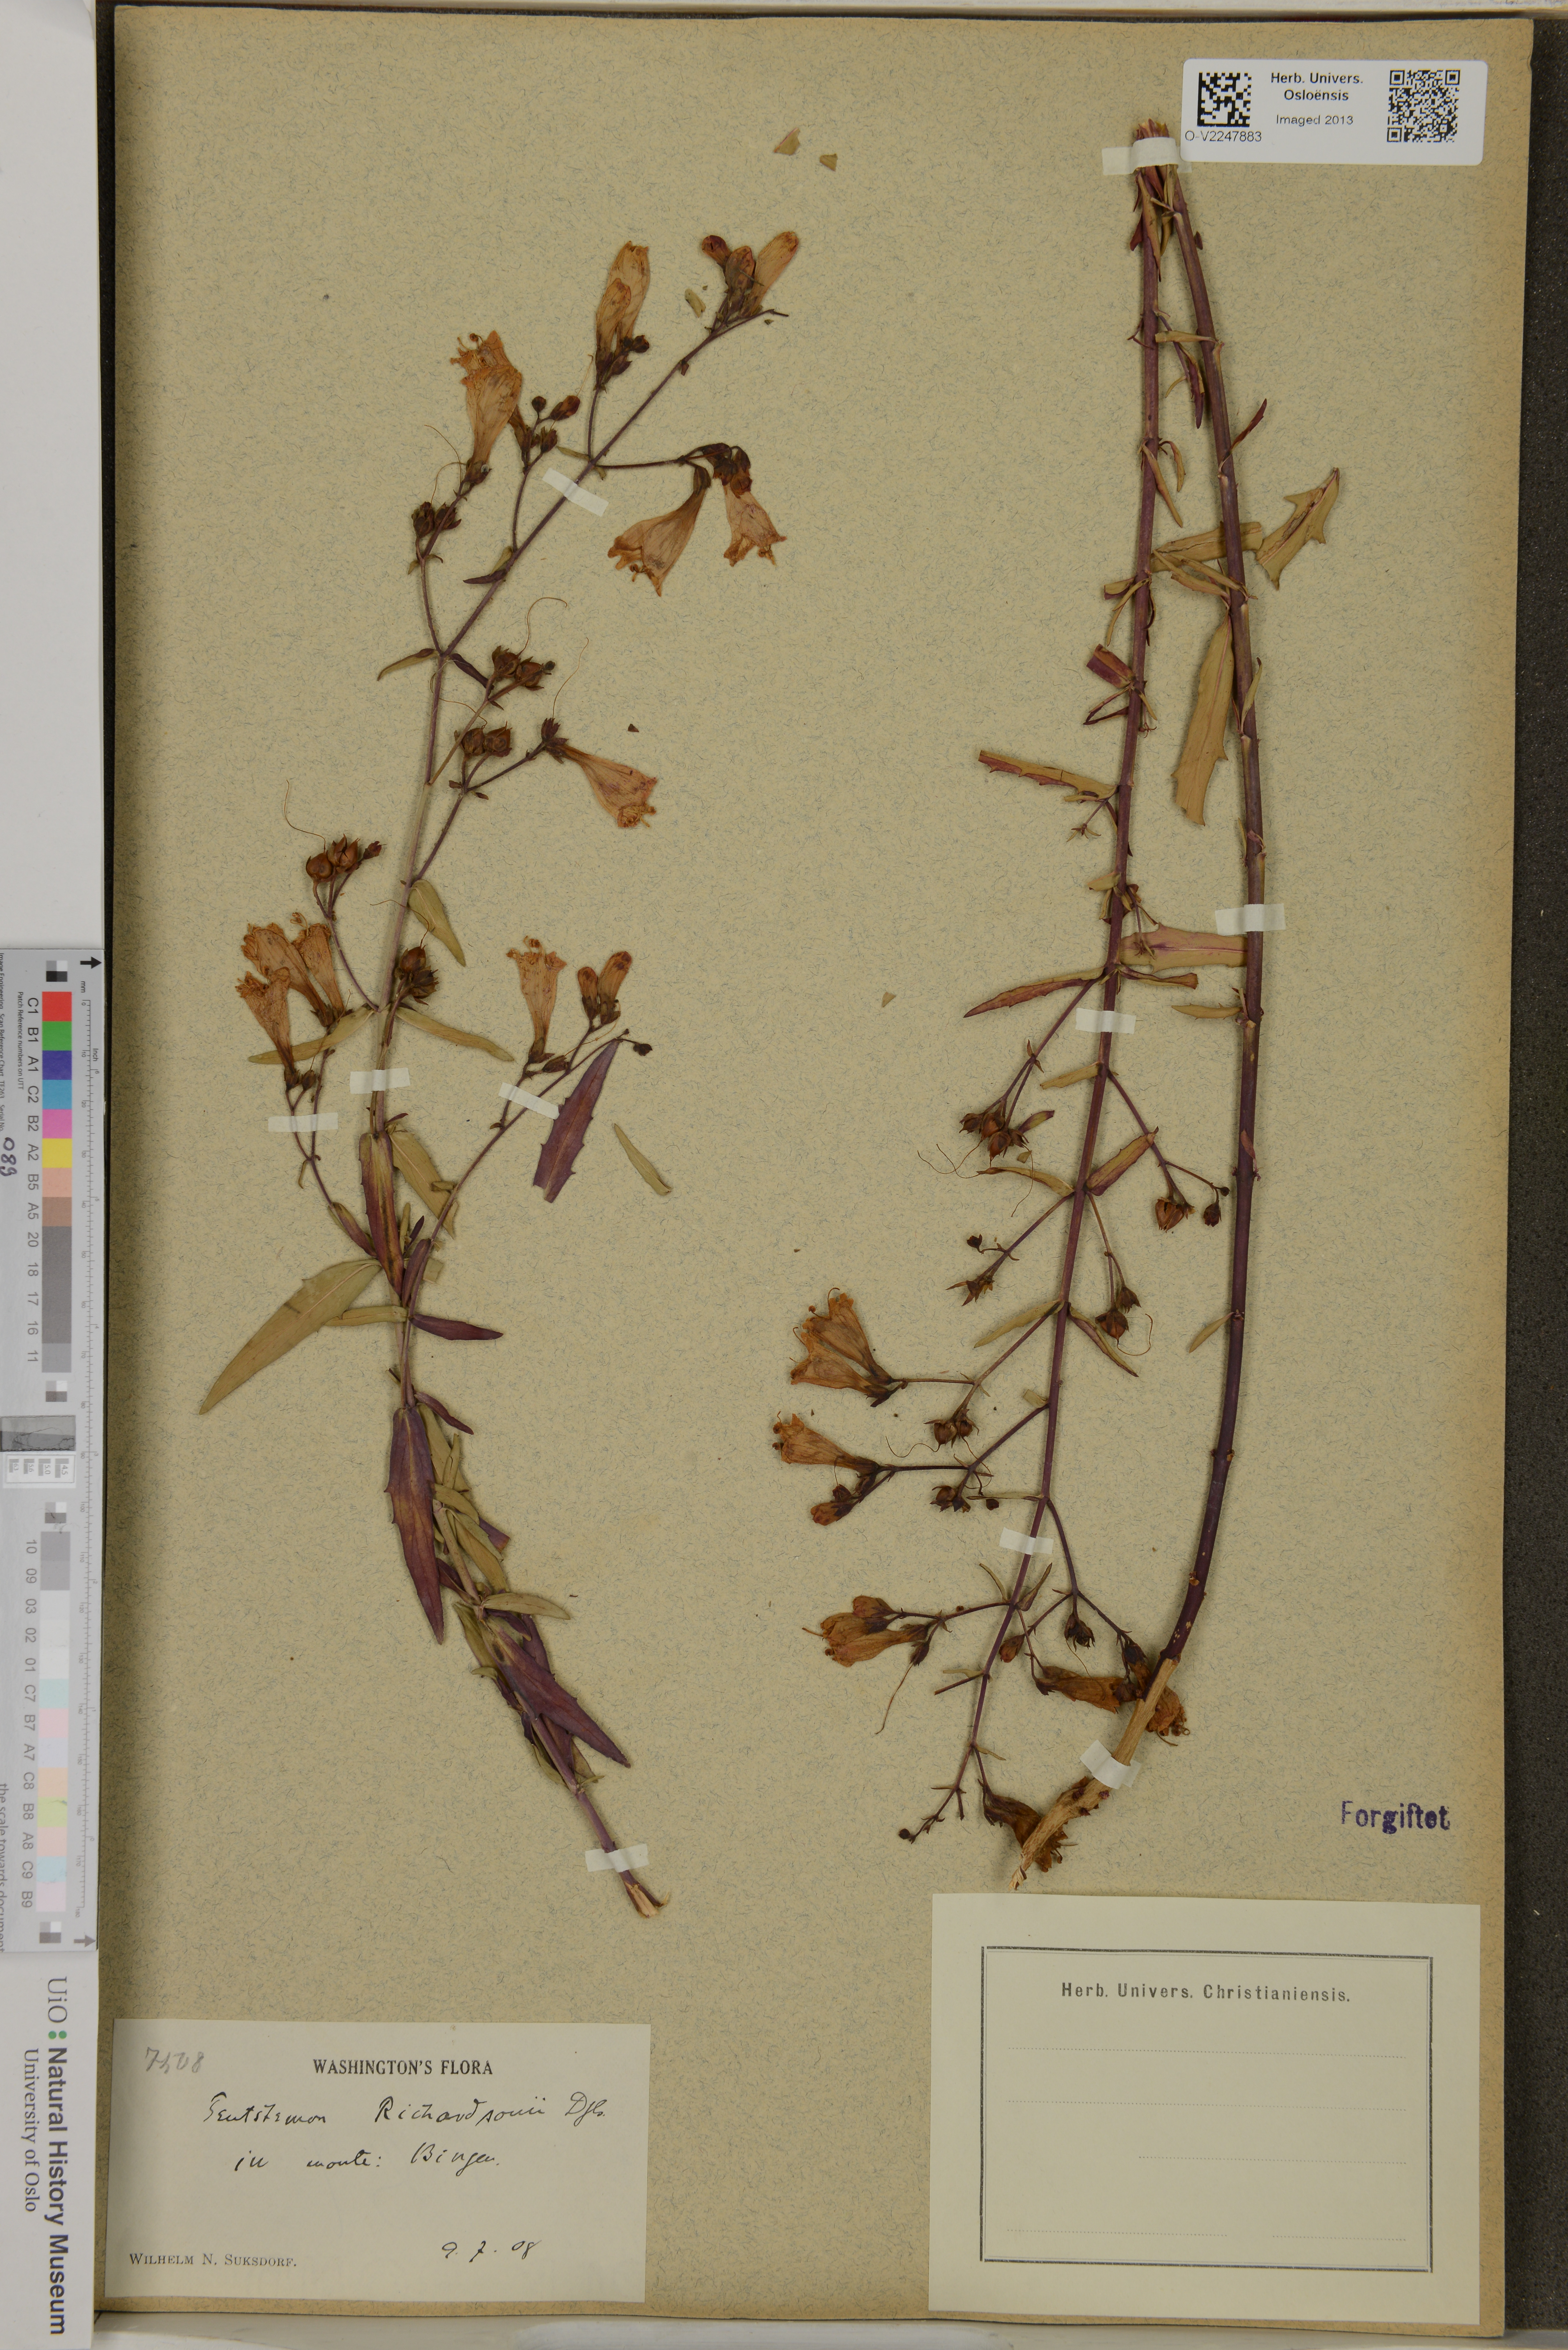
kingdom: Plantae
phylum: Tracheophyta
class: Magnoliopsida
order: Lamiales
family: Plantaginaceae
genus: Penstemon
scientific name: Penstemon richardsonii
